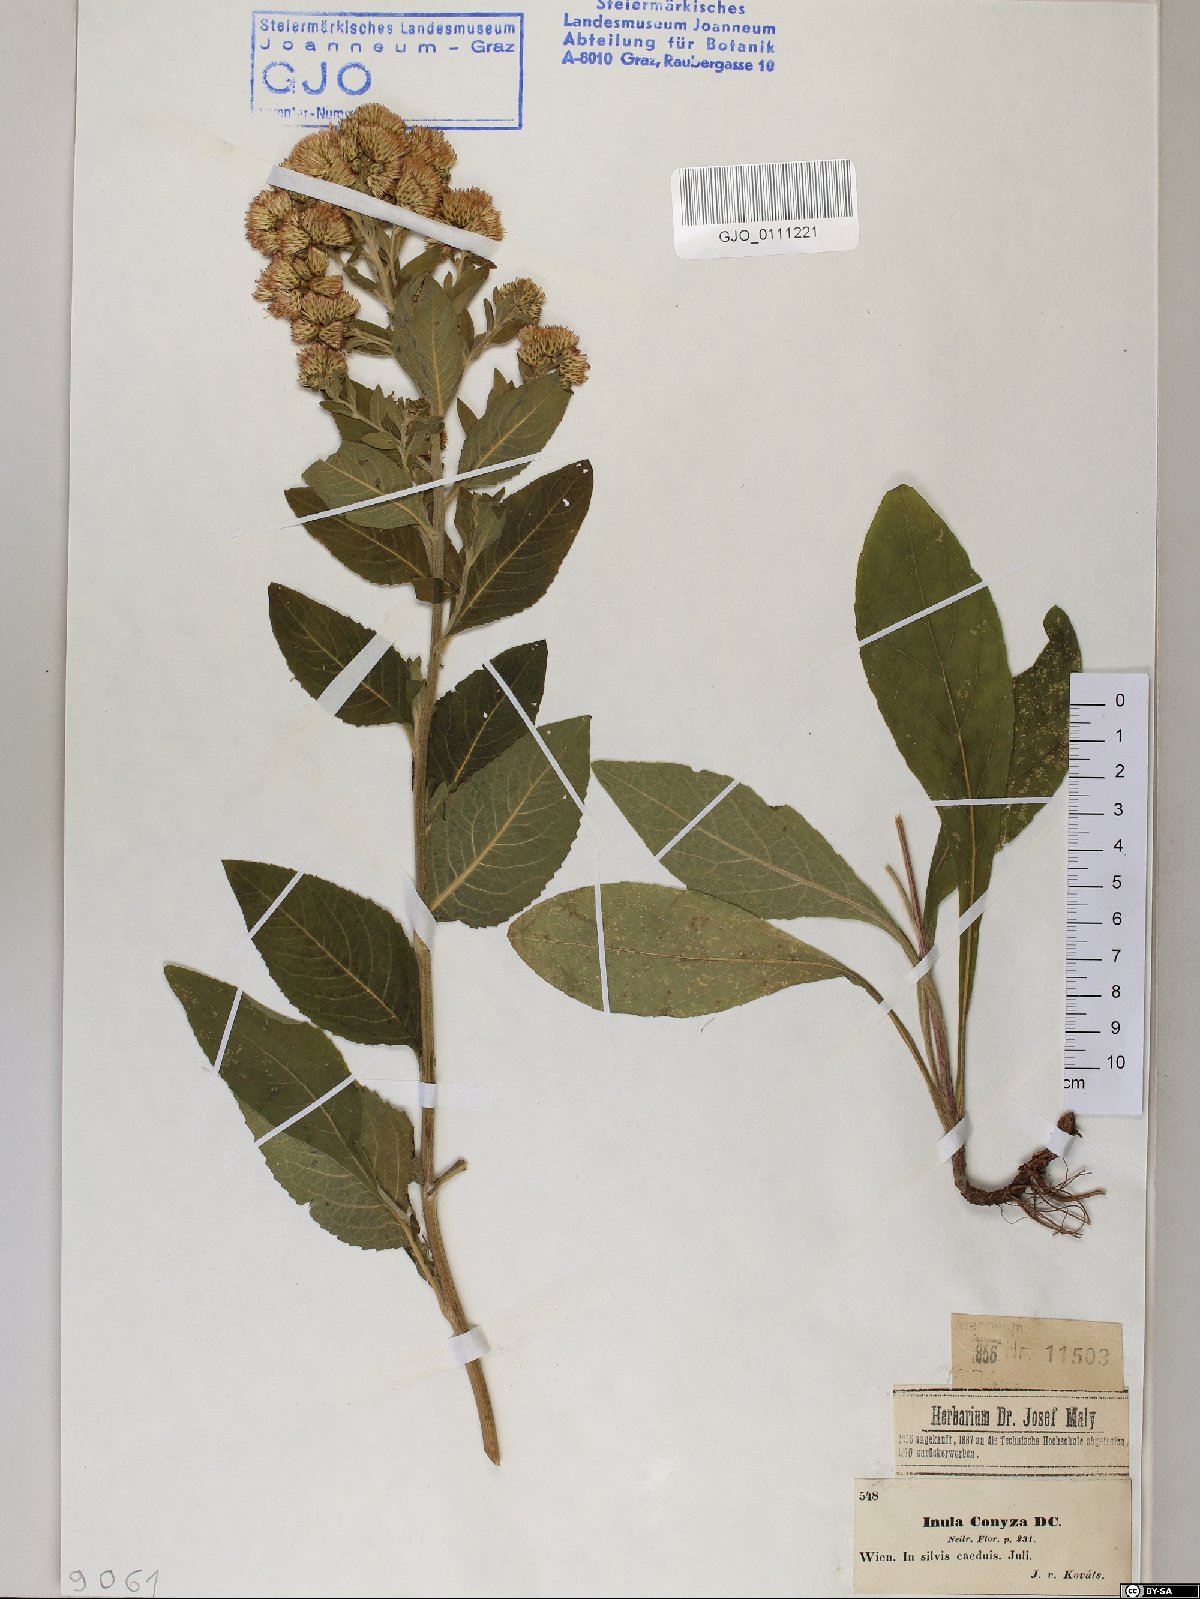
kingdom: Plantae
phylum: Tracheophyta
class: Magnoliopsida
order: Asterales
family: Asteraceae
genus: Pentanema
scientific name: Pentanema squarrosum
